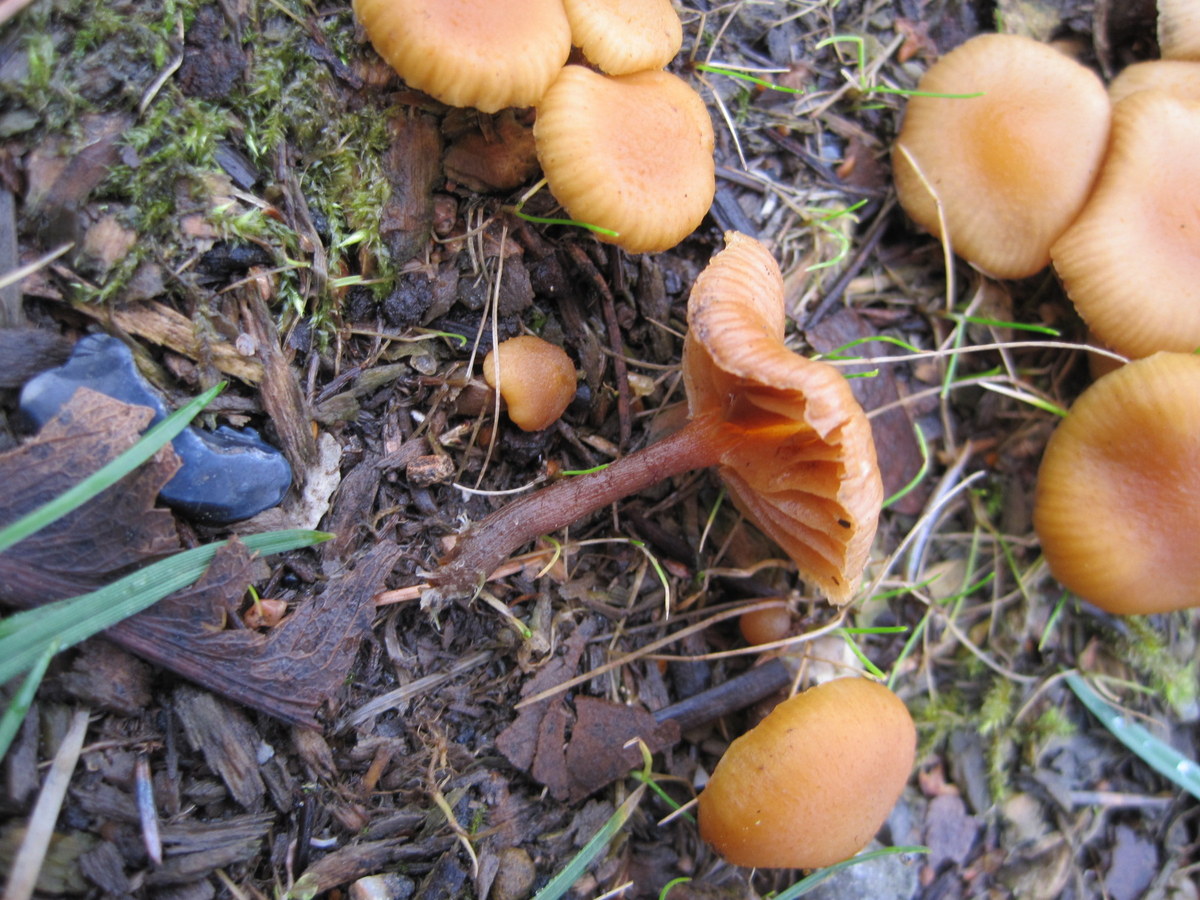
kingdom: Fungi
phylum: Basidiomycota
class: Agaricomycetes
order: Agaricales
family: Hymenogastraceae
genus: Galerina
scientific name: Galerina marginata
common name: randbæltet hjelmhat
